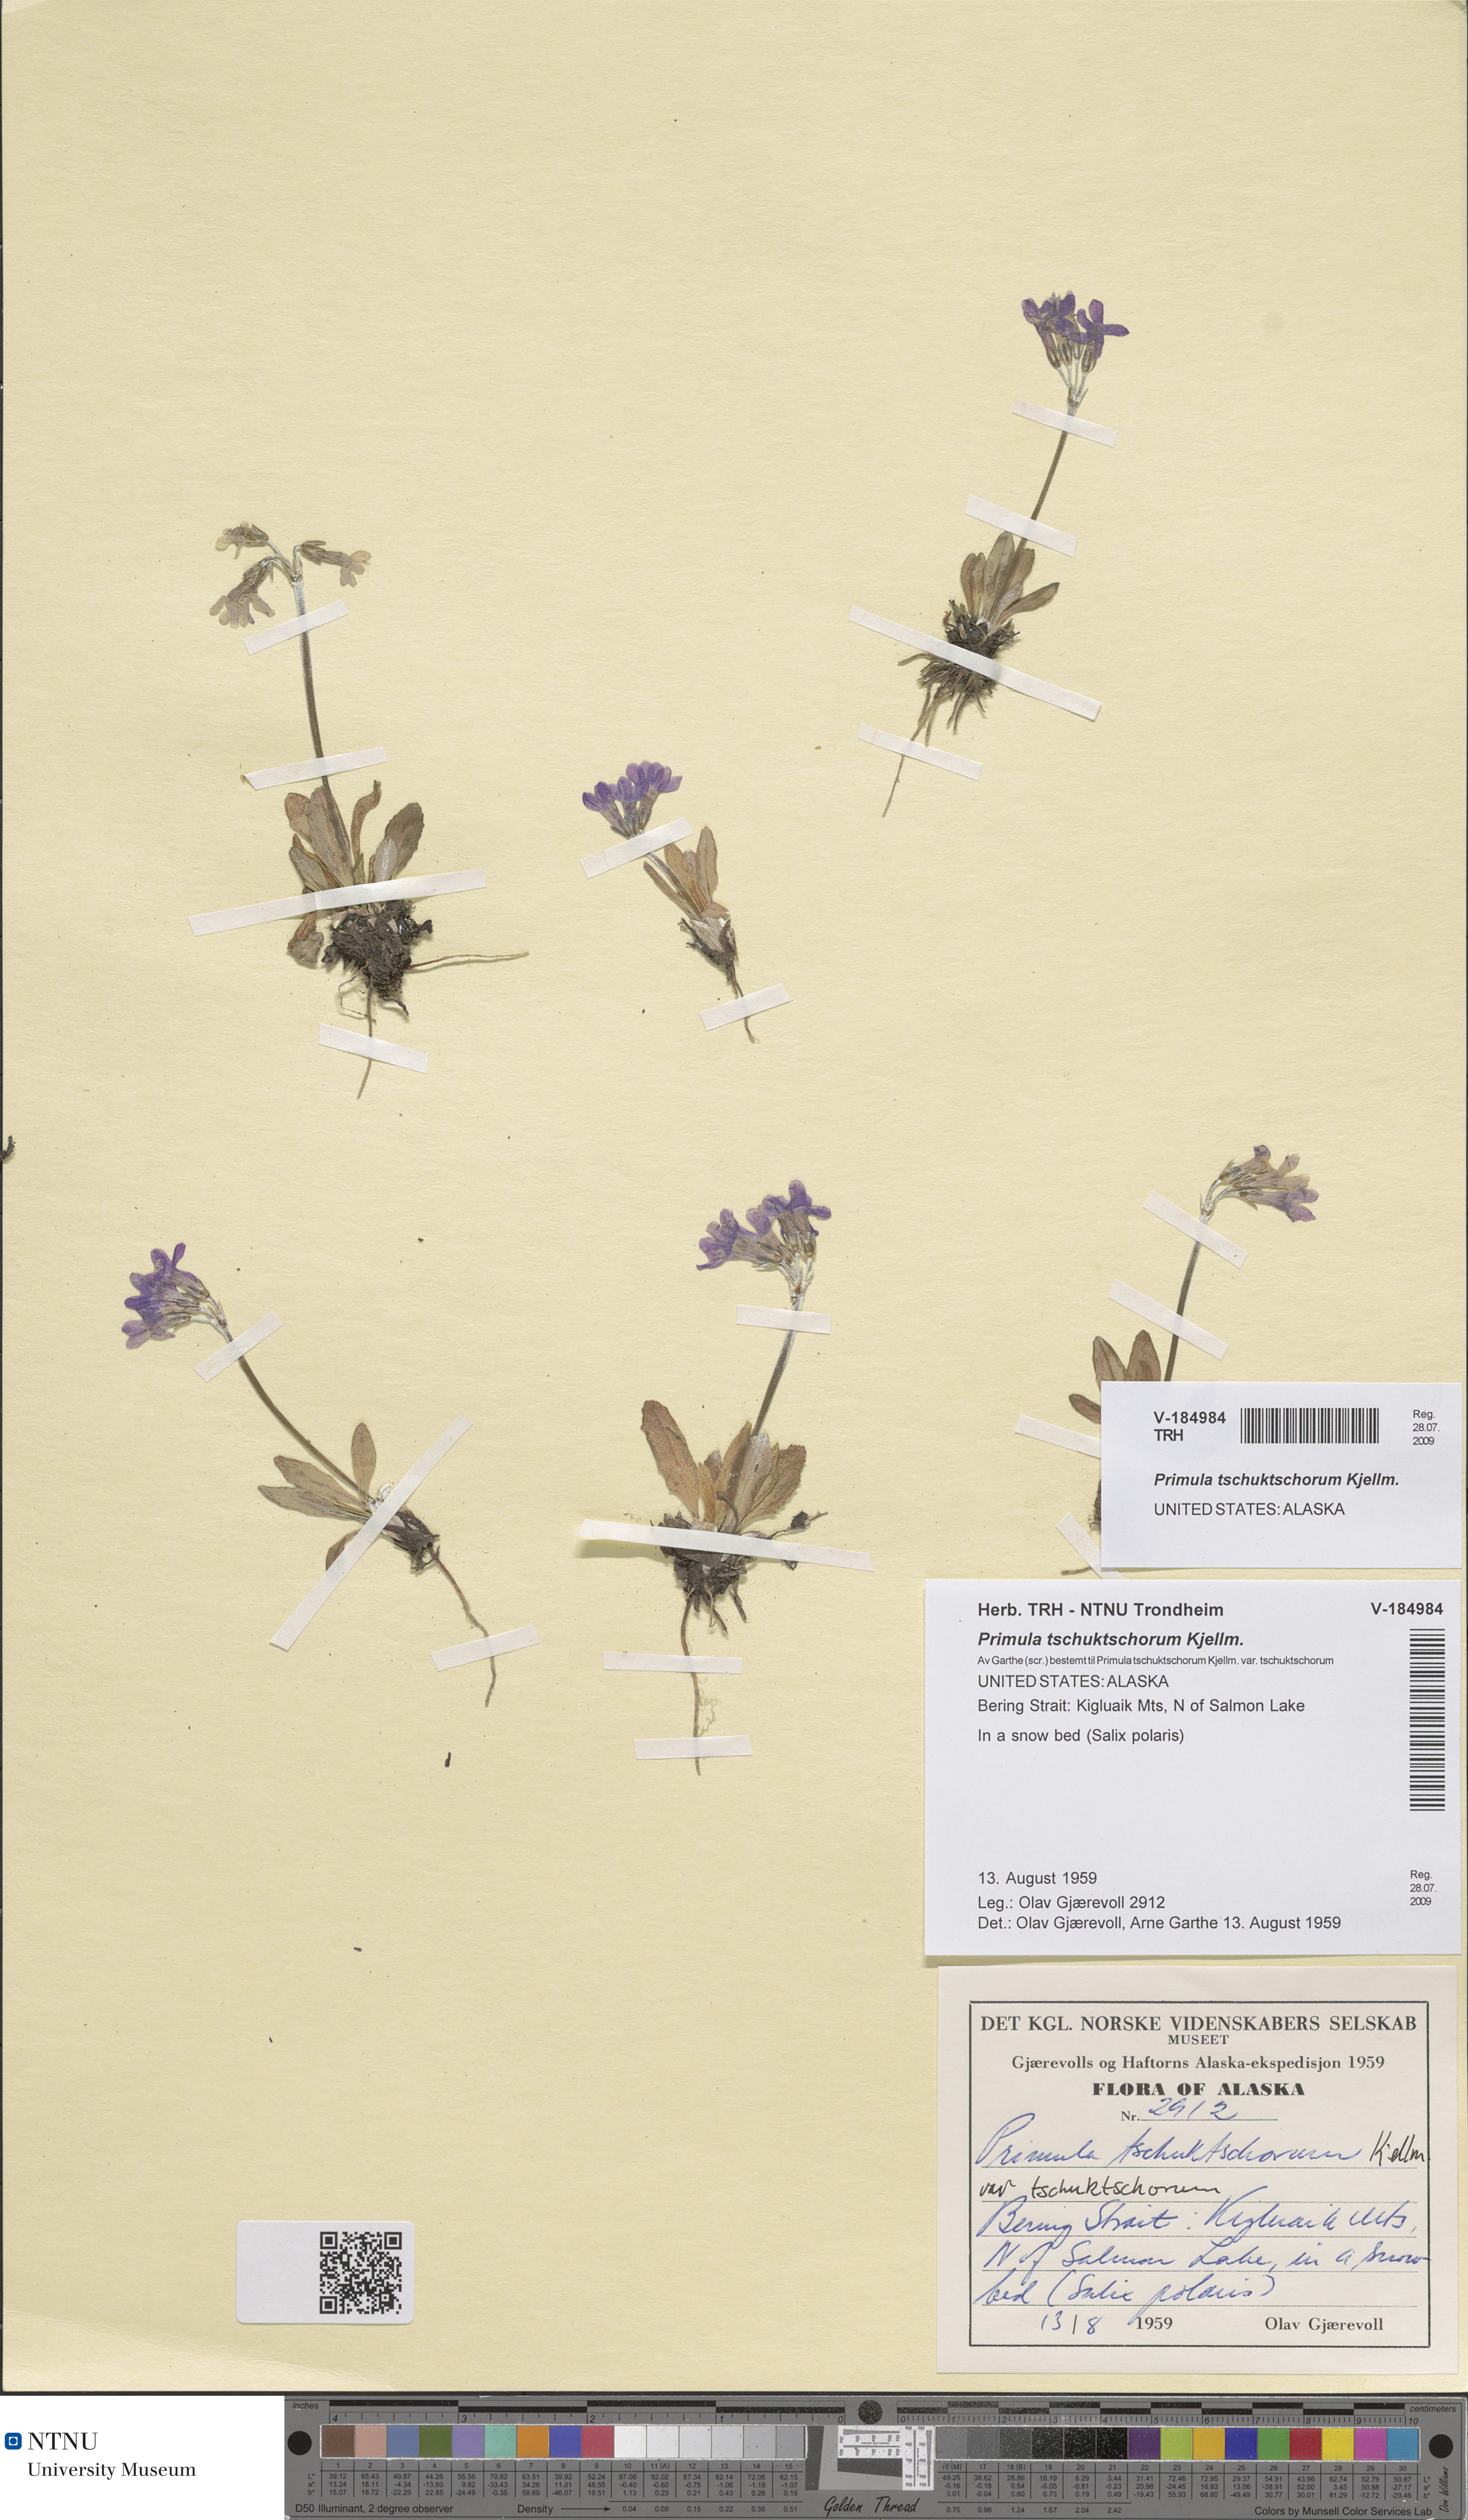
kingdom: Plantae
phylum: Tracheophyta
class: Magnoliopsida
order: Ericales
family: Primulaceae
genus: Primula
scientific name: Primula tschuktschorum
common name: Chukchi primrose
